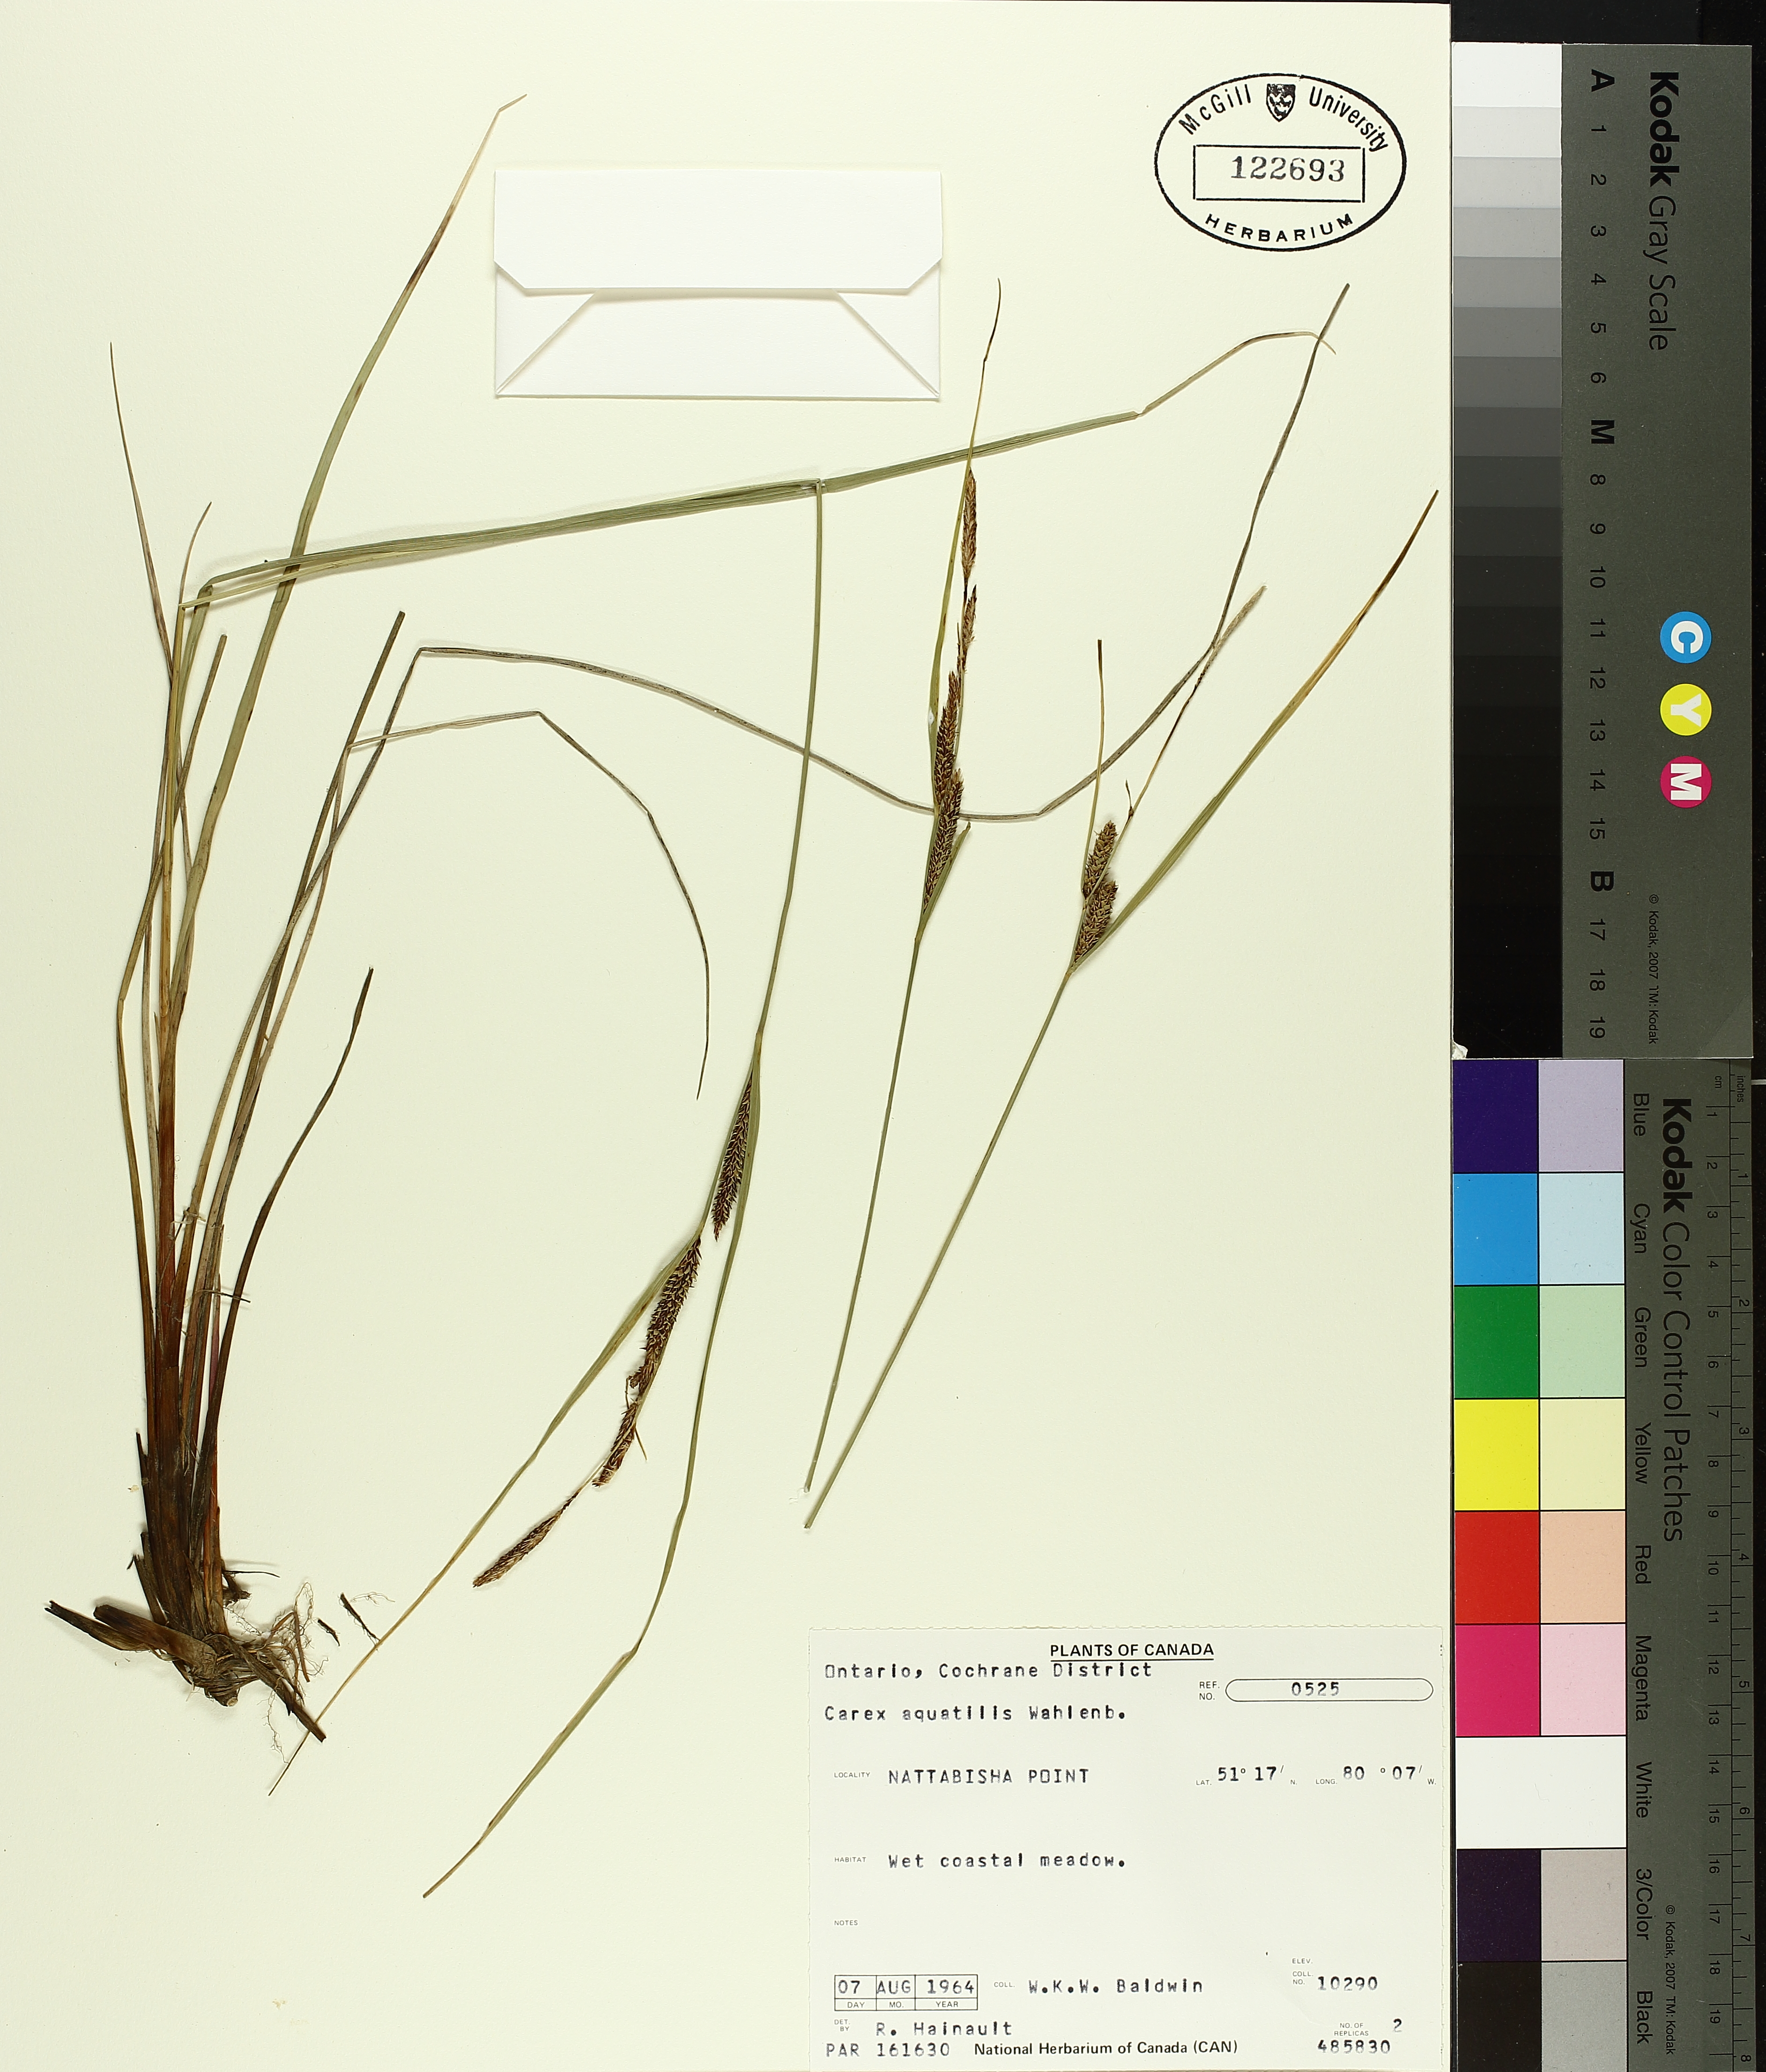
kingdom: Plantae
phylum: Tracheophyta
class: Liliopsida
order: Poales
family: Cyperaceae
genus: Carex
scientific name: Carex aquatilis
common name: Water sedge
